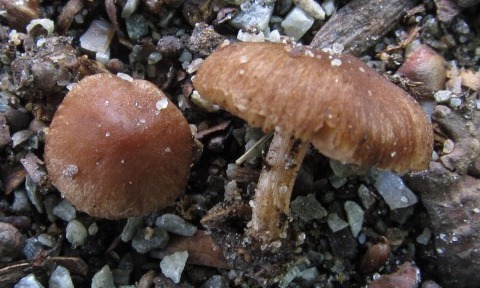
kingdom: Fungi
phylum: Basidiomycota
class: Agaricomycetes
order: Agaricales
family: Inocybaceae
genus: Inocybe
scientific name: Inocybe minimispora
